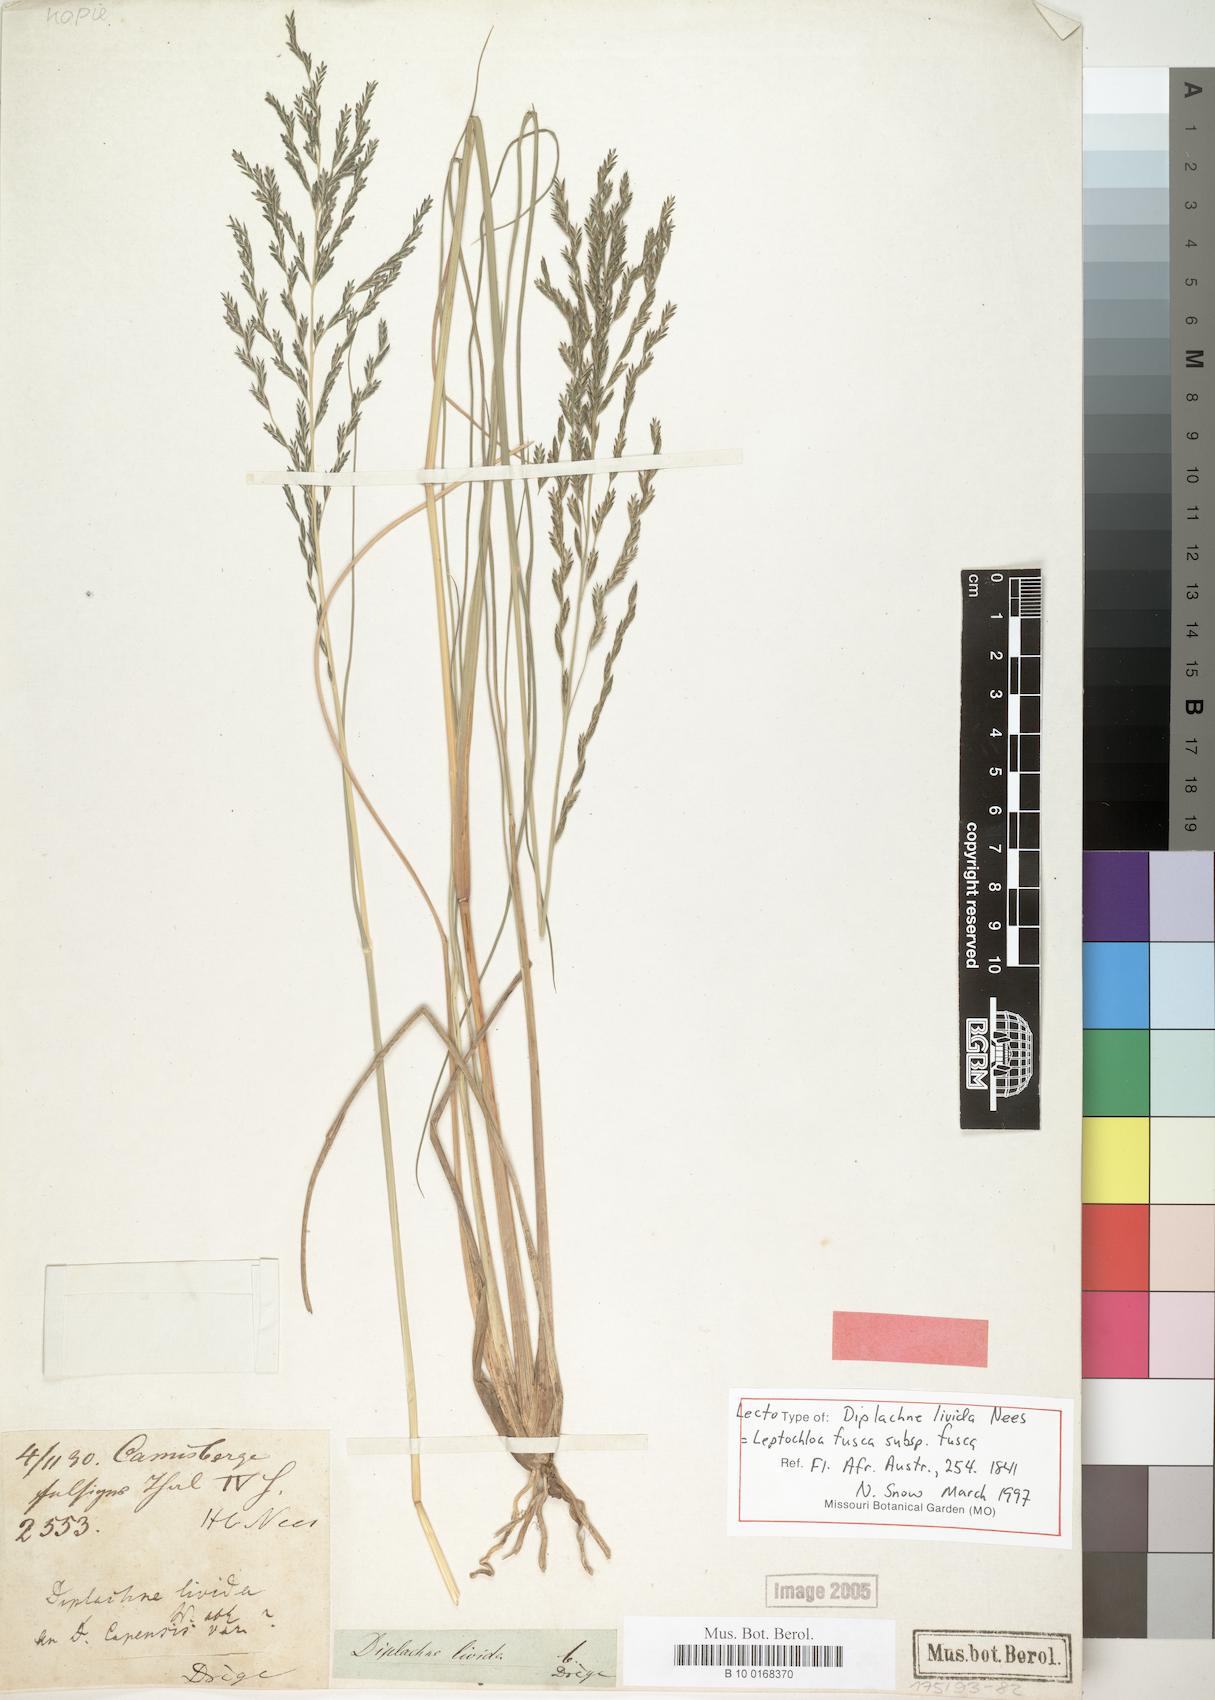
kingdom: Plantae
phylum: Tracheophyta
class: Liliopsida
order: Poales
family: Poaceae
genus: Diplachne
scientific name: Diplachne fusca
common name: Brown beetle grass
